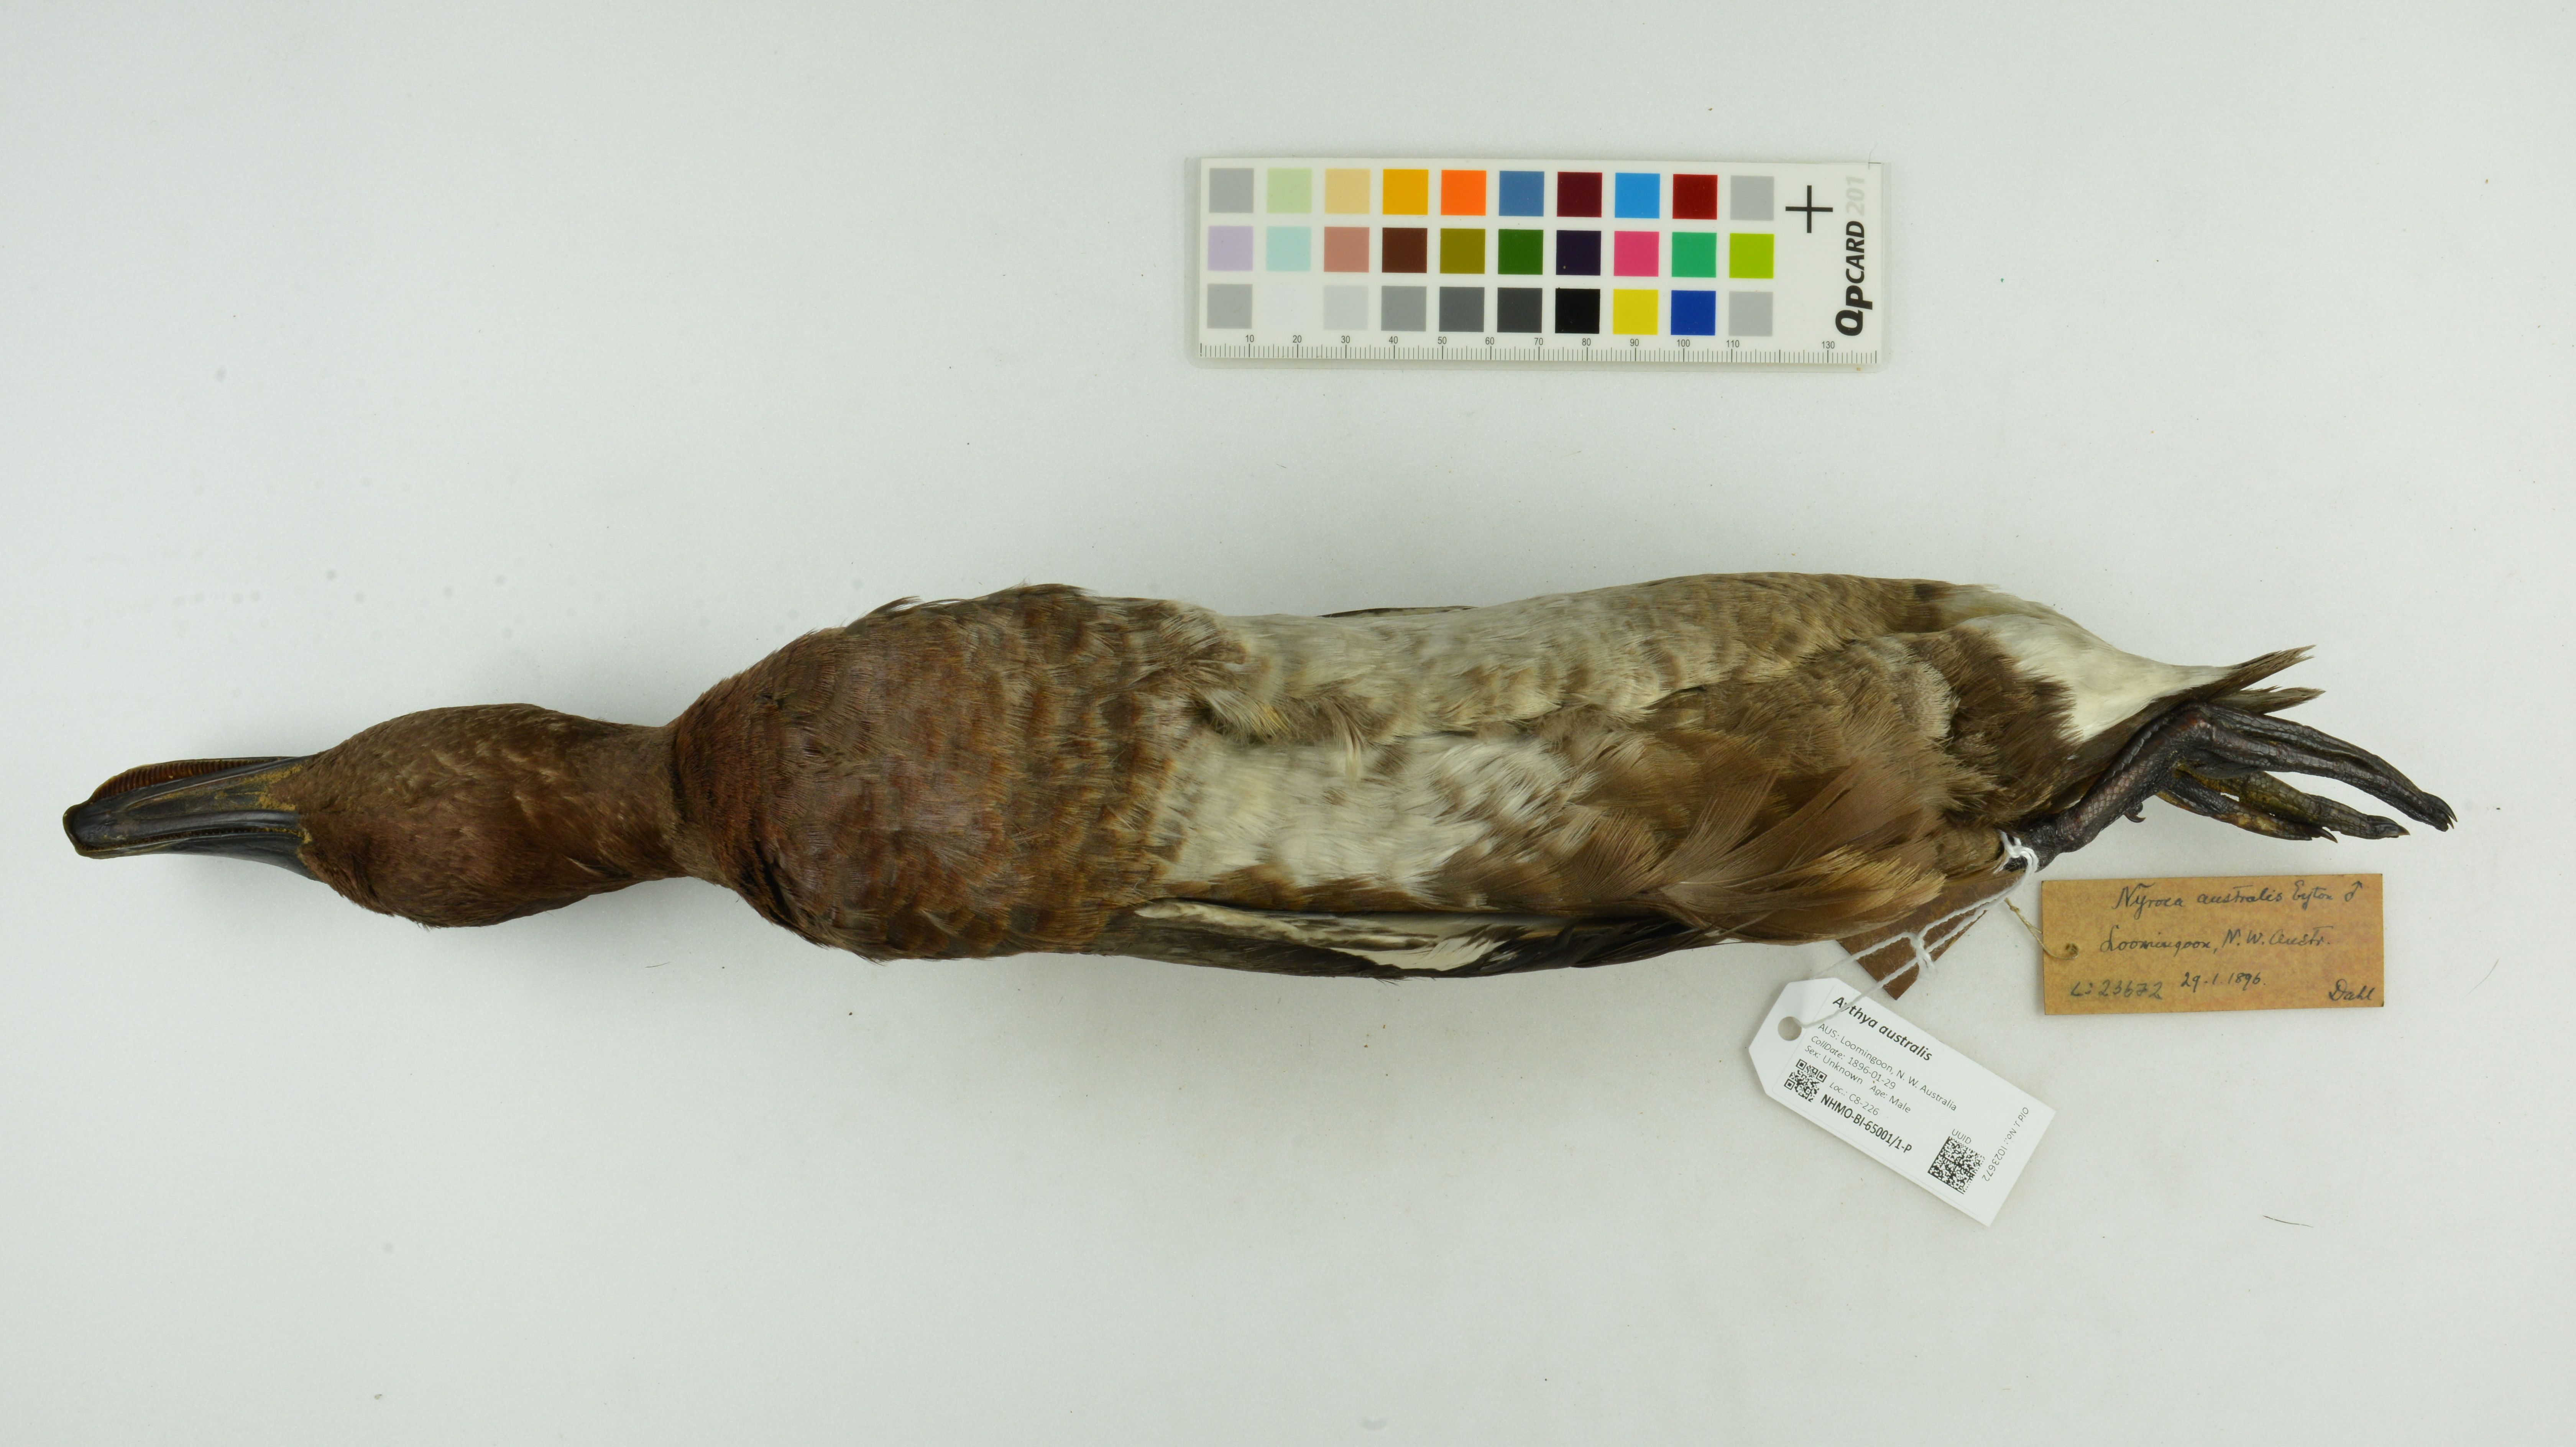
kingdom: Animalia
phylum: Chordata
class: Aves
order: Anseriformes
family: Anatidae
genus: Aythya
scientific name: Aythya australis
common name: Hardhead
